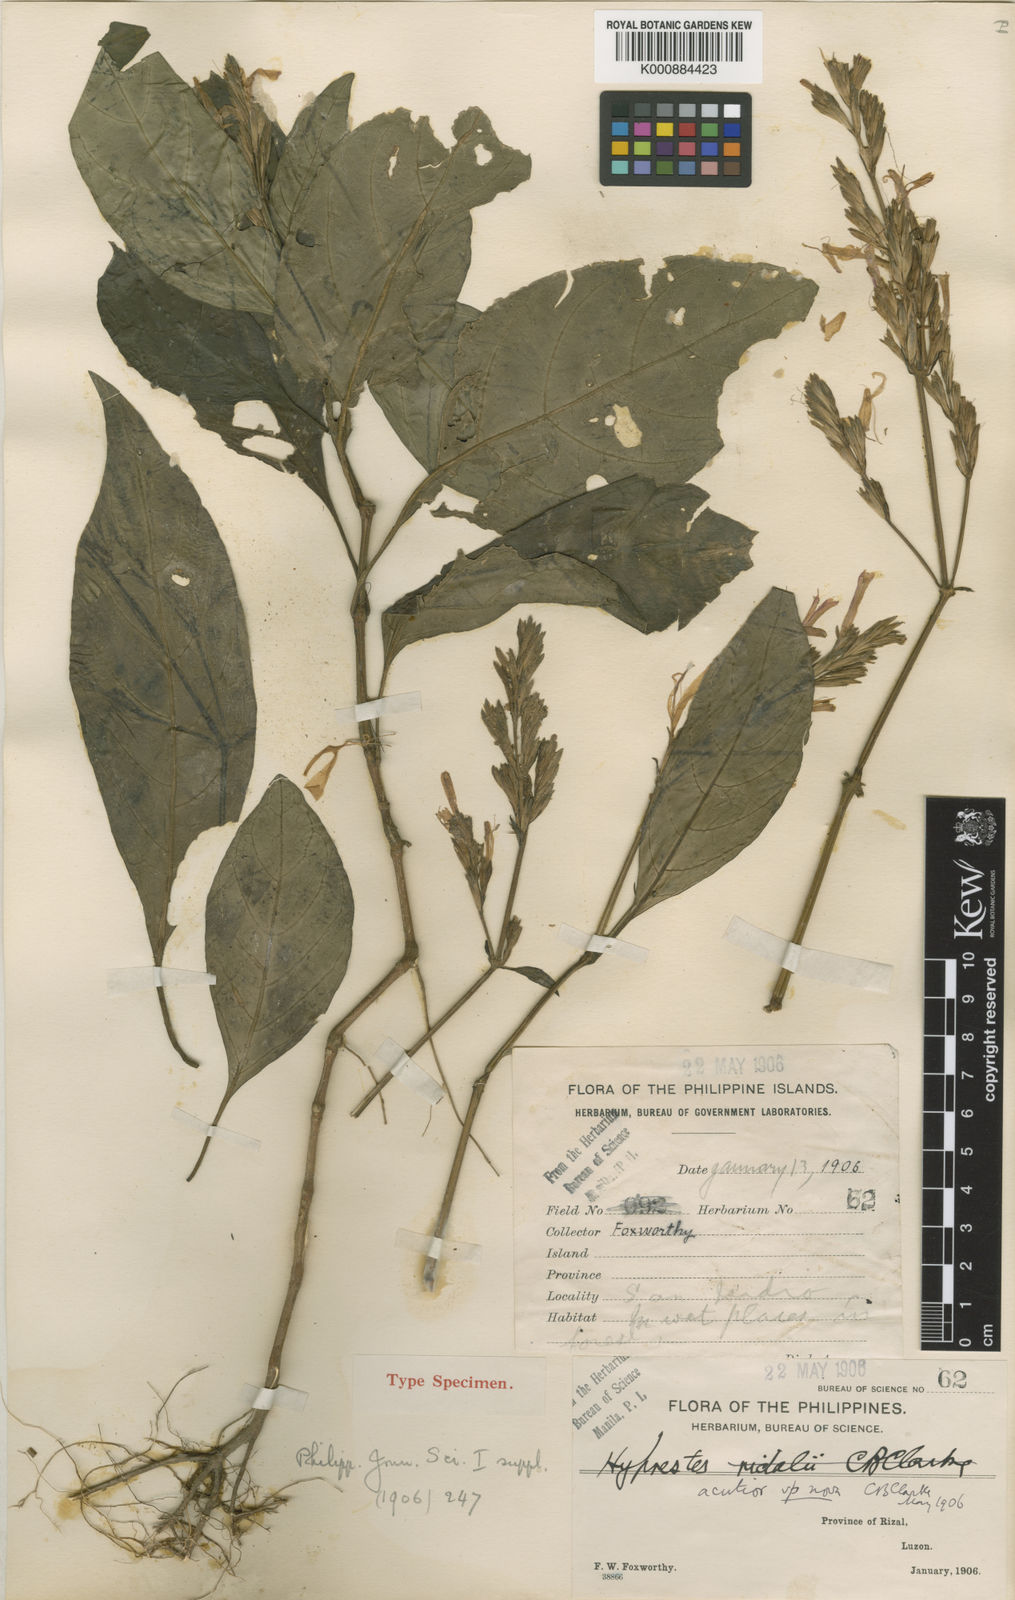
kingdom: Plantae
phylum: Tracheophyta
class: Magnoliopsida
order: Lamiales
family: Acanthaceae
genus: Hypoestes
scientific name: Hypoestes
